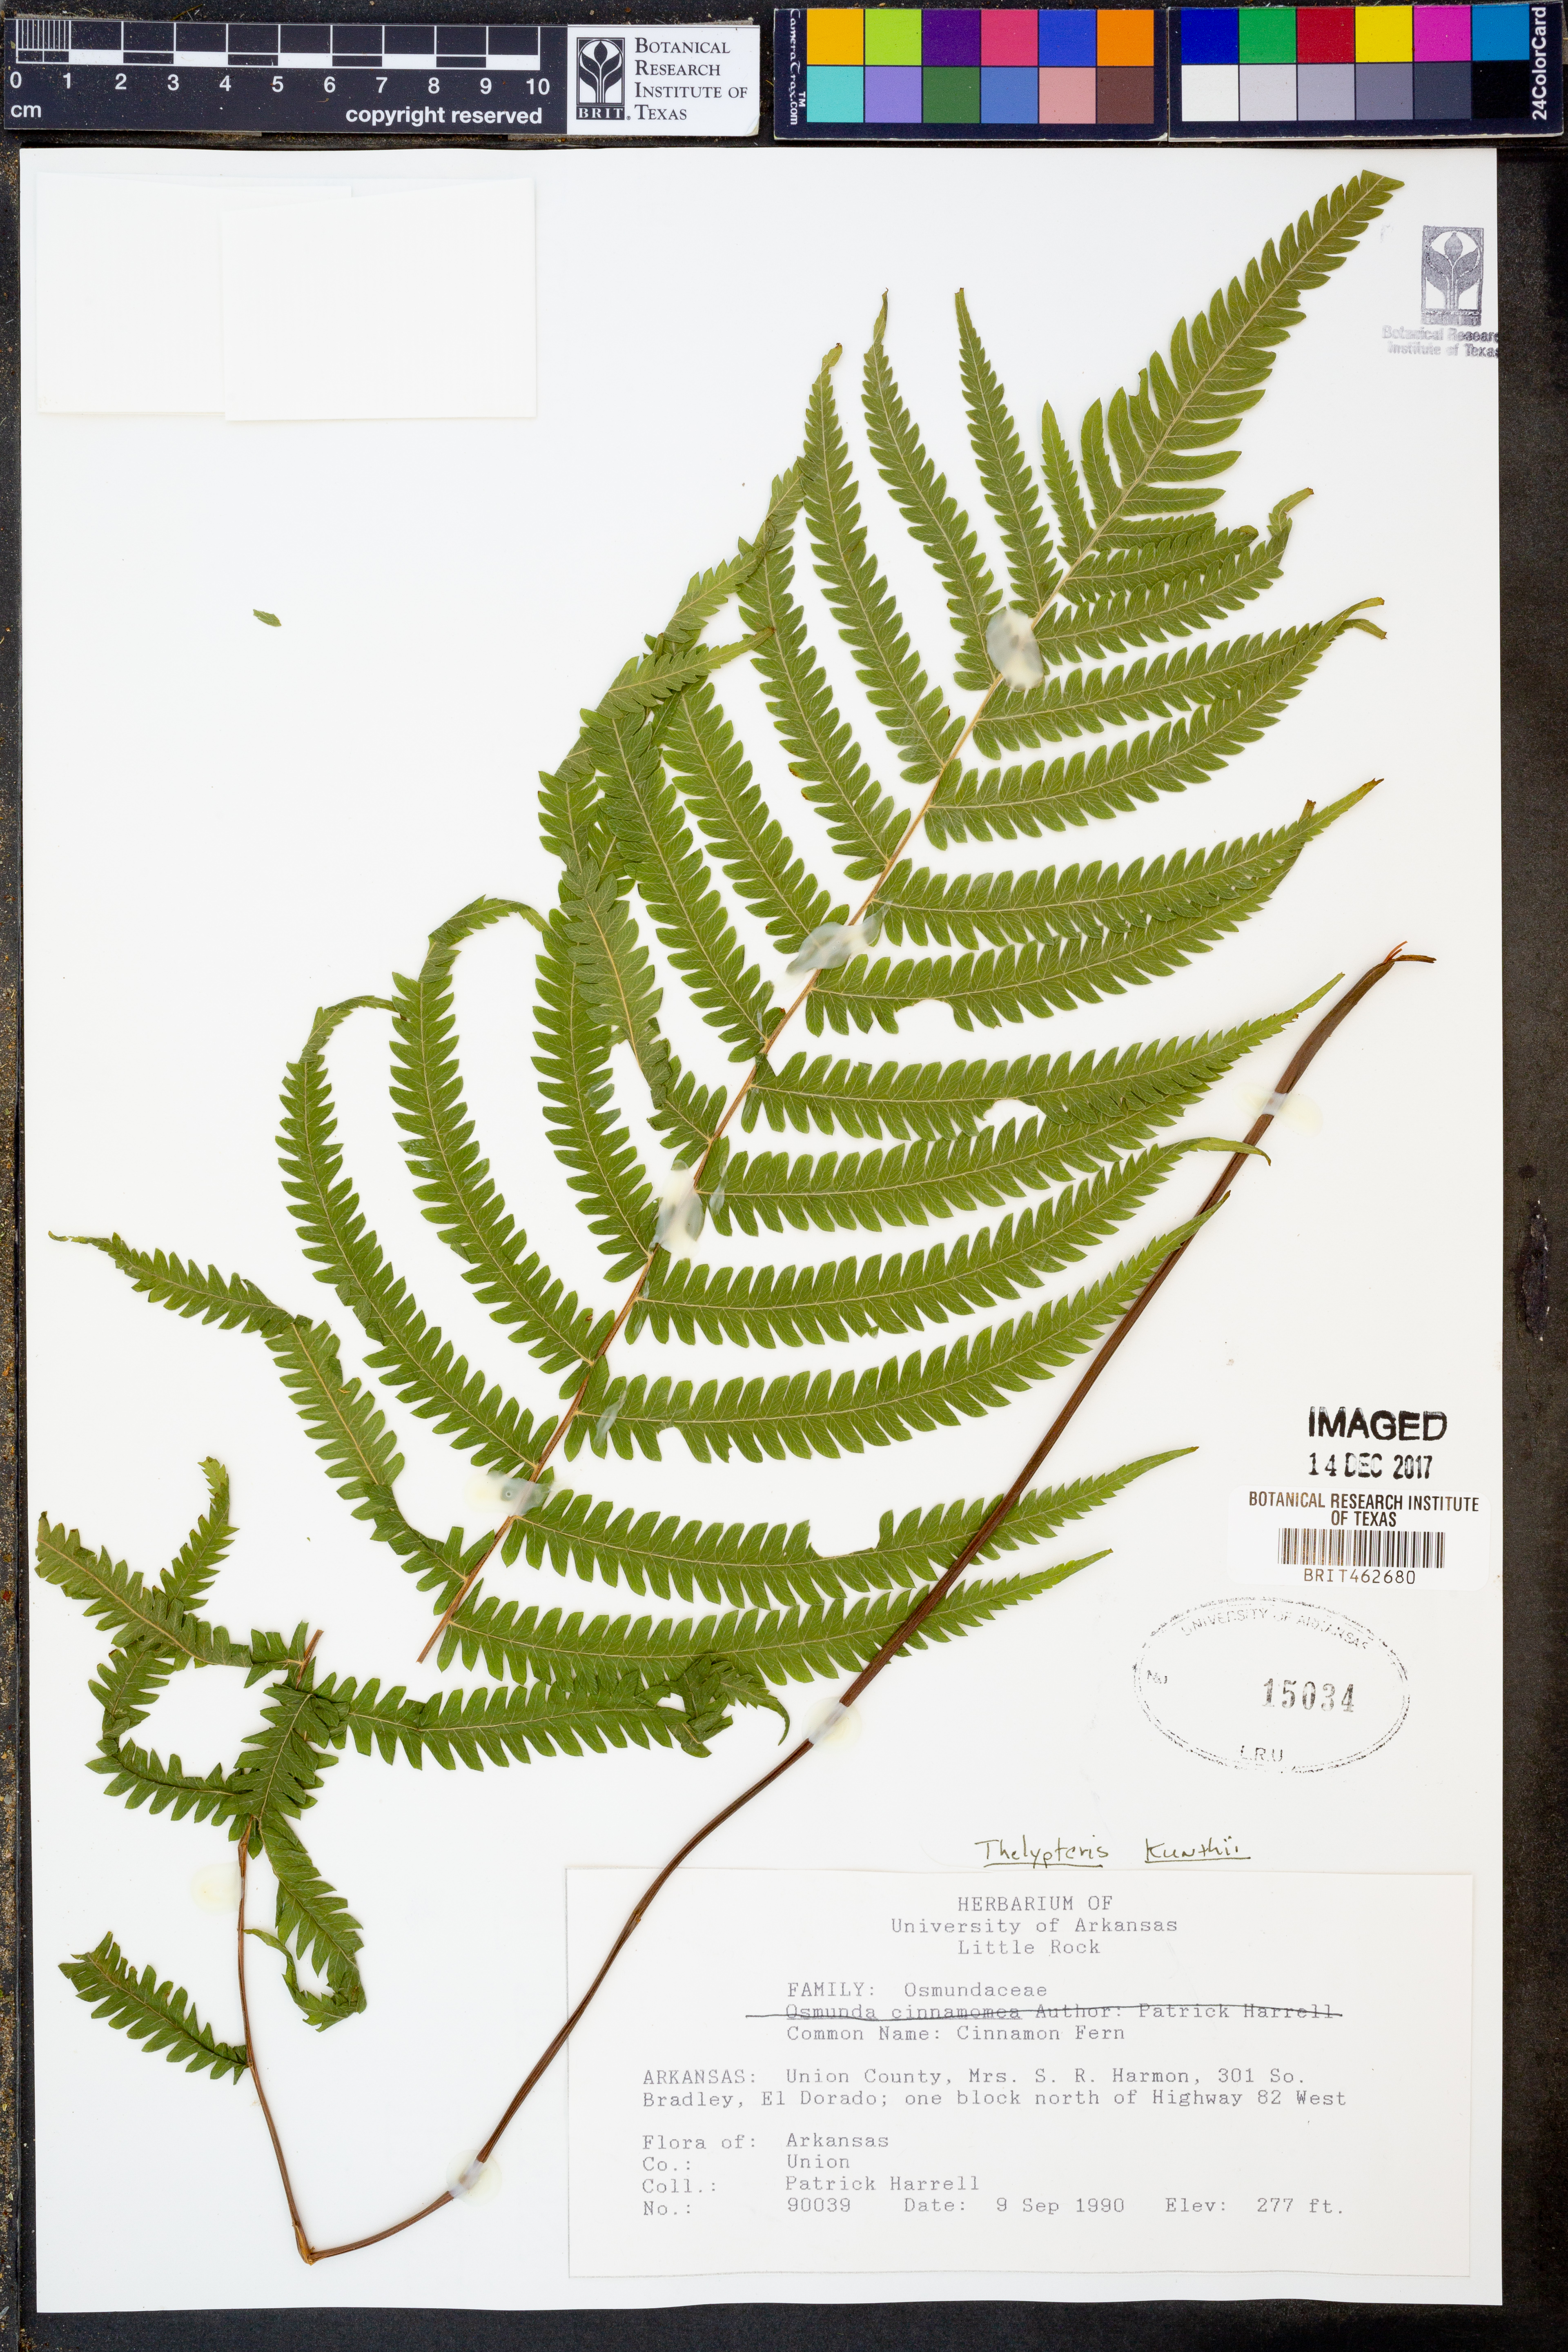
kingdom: Plantae
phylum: Tracheophyta
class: Polypodiopsida
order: Polypodiales
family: Thelypteridaceae
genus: Pelazoneuron
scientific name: Pelazoneuron kunthii
